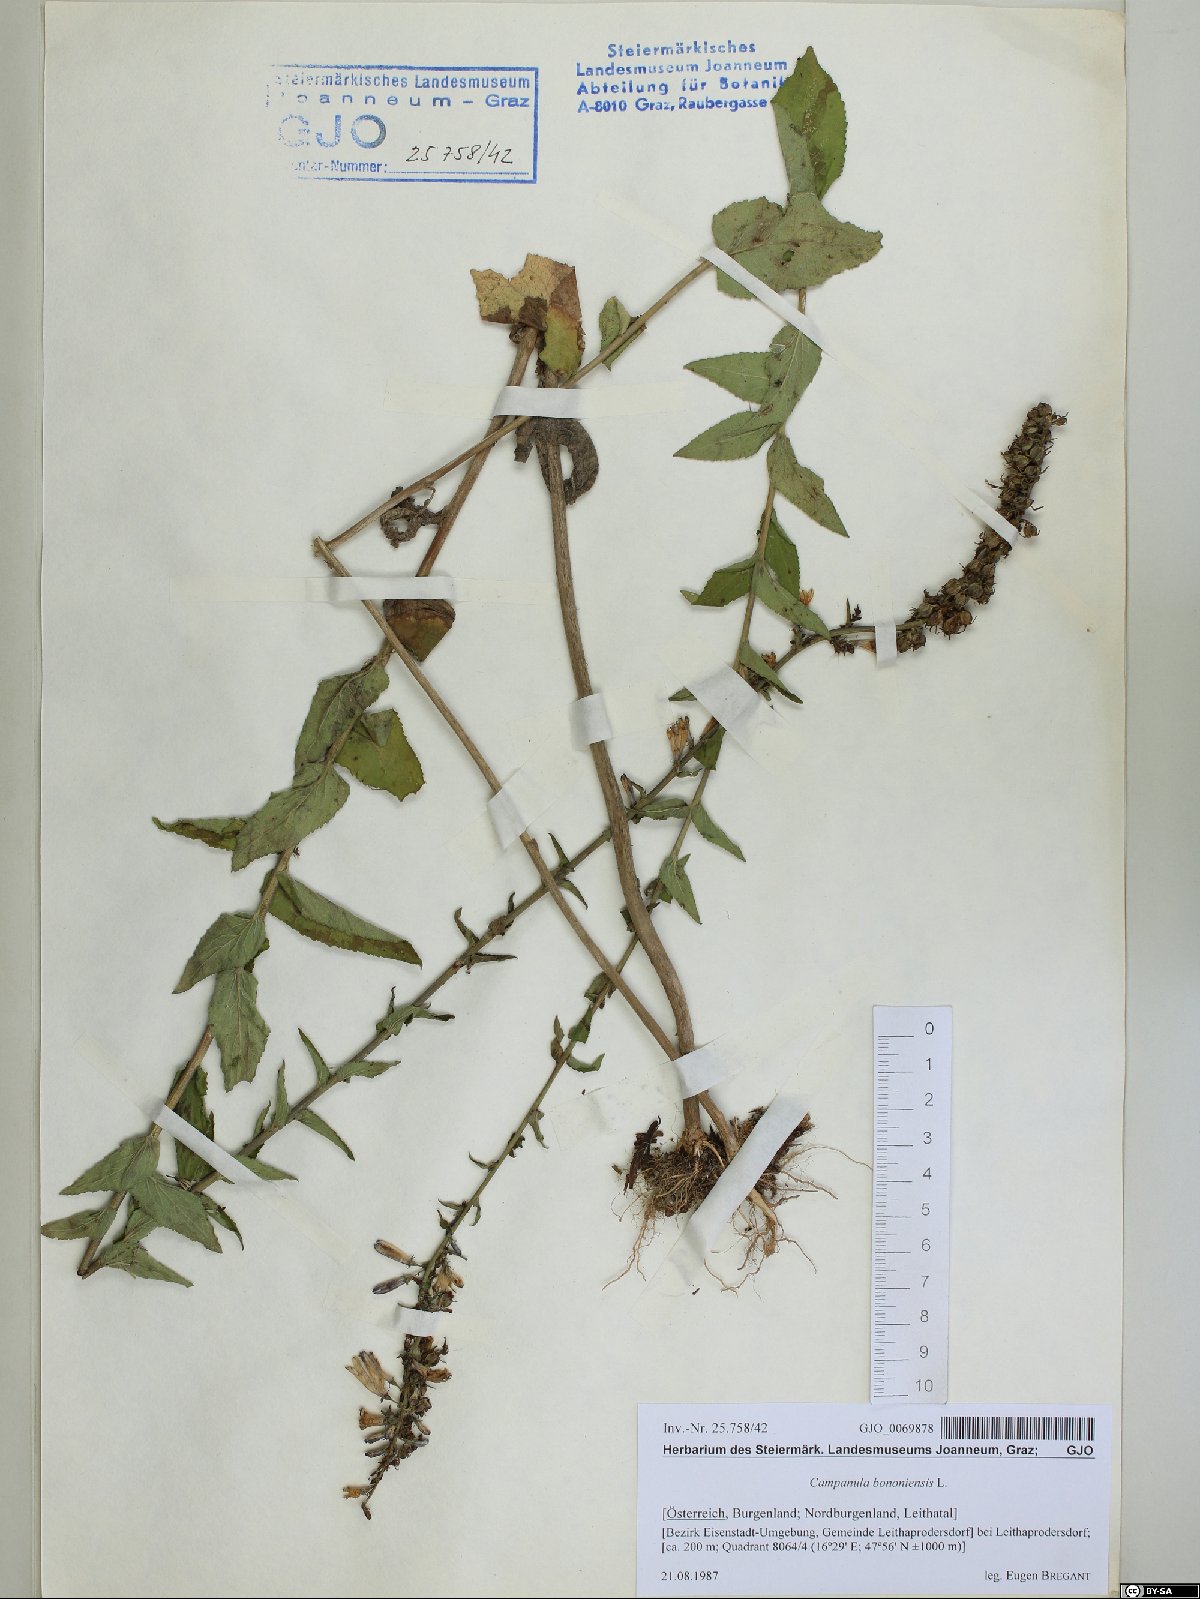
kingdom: Plantae
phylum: Tracheophyta
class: Magnoliopsida
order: Asterales
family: Campanulaceae
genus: Campanula
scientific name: Campanula bononiensis
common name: Pale bellflower
